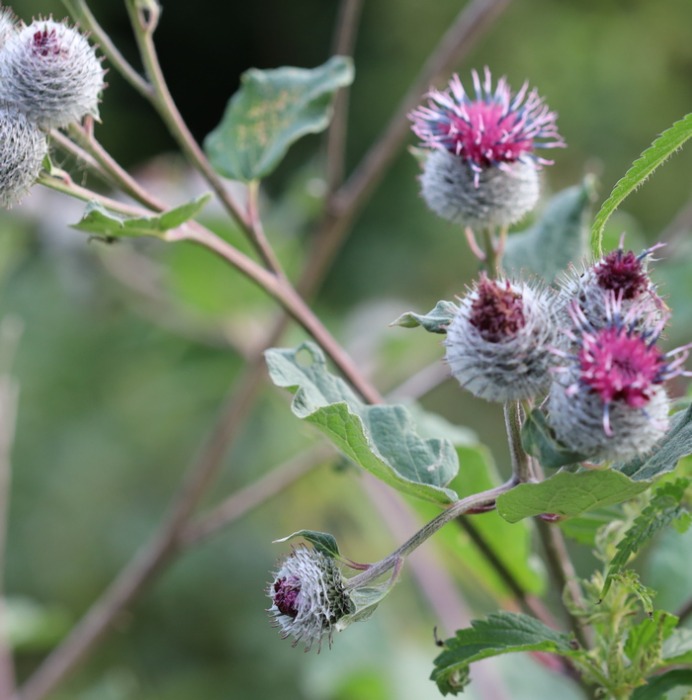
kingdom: Plantae
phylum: Tracheophyta
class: Magnoliopsida
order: Asterales
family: Asteraceae
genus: Arctium
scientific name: Arctium tomentosum
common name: Filtet burre
